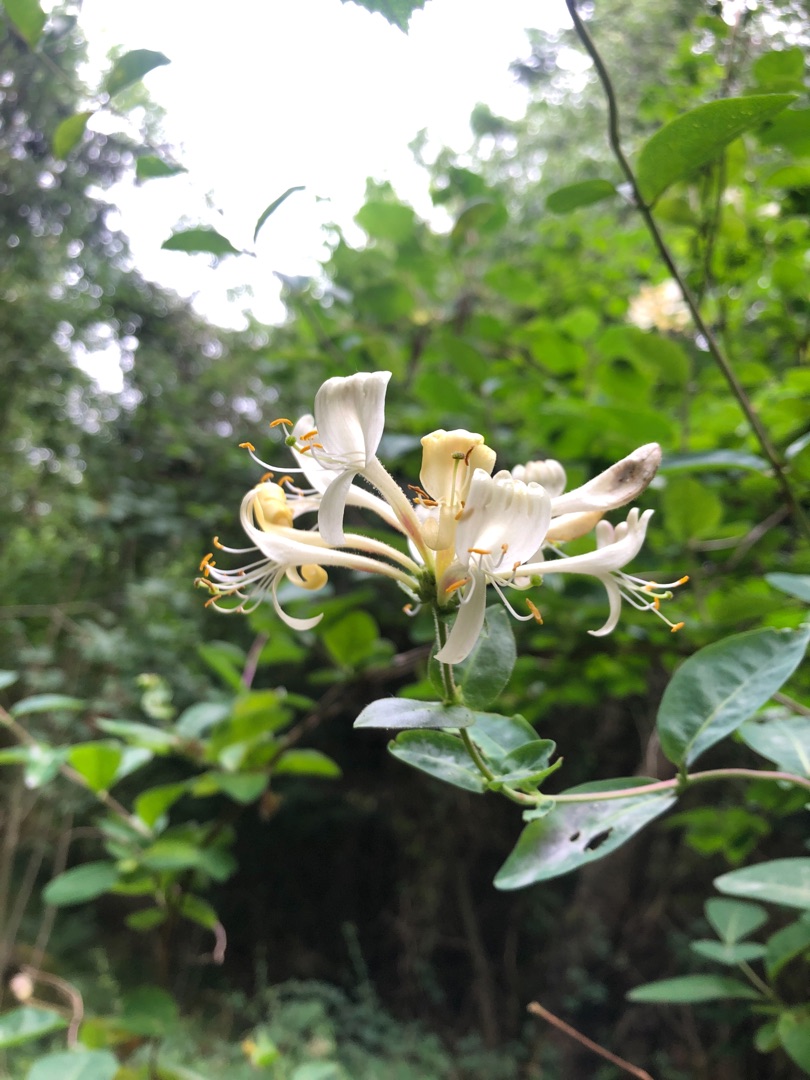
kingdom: Plantae
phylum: Tracheophyta
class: Magnoliopsida
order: Dipsacales
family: Caprifoliaceae
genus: Lonicera
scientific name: Lonicera periclymenum
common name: Almindelig gedeblad
